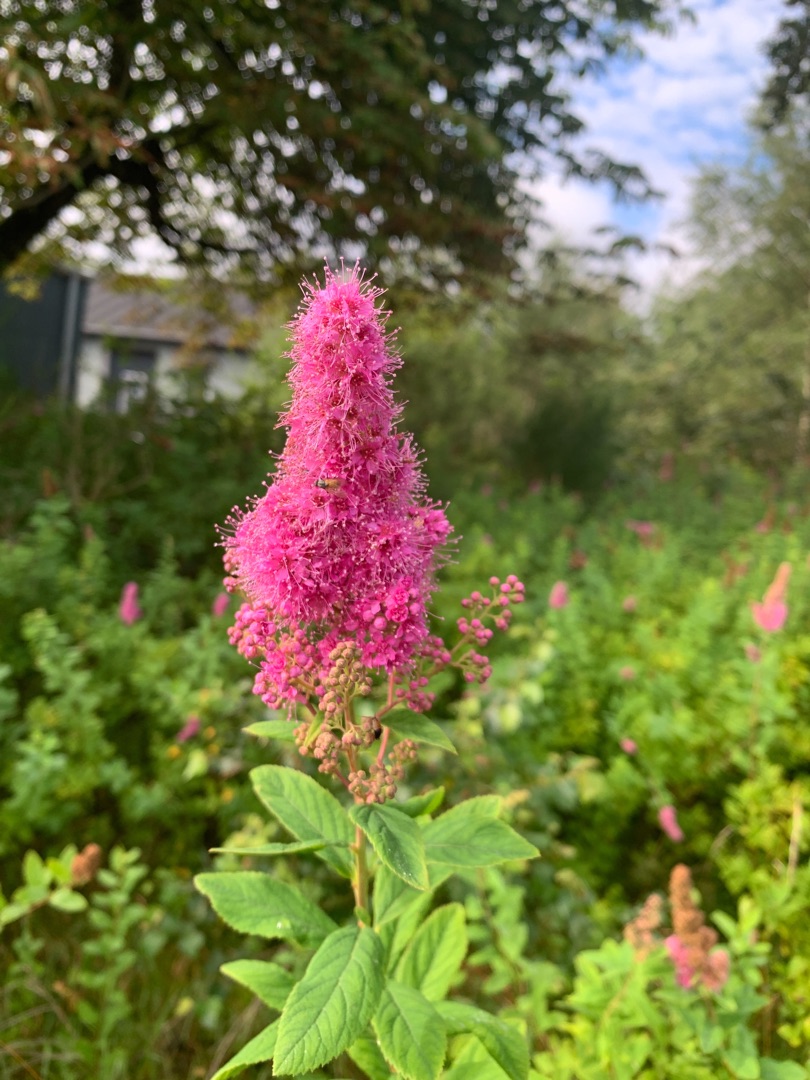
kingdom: Plantae
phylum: Tracheophyta
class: Magnoliopsida
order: Rosales
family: Rosaceae
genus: Spiraea
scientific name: Spiraea
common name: Spiræaslægten
